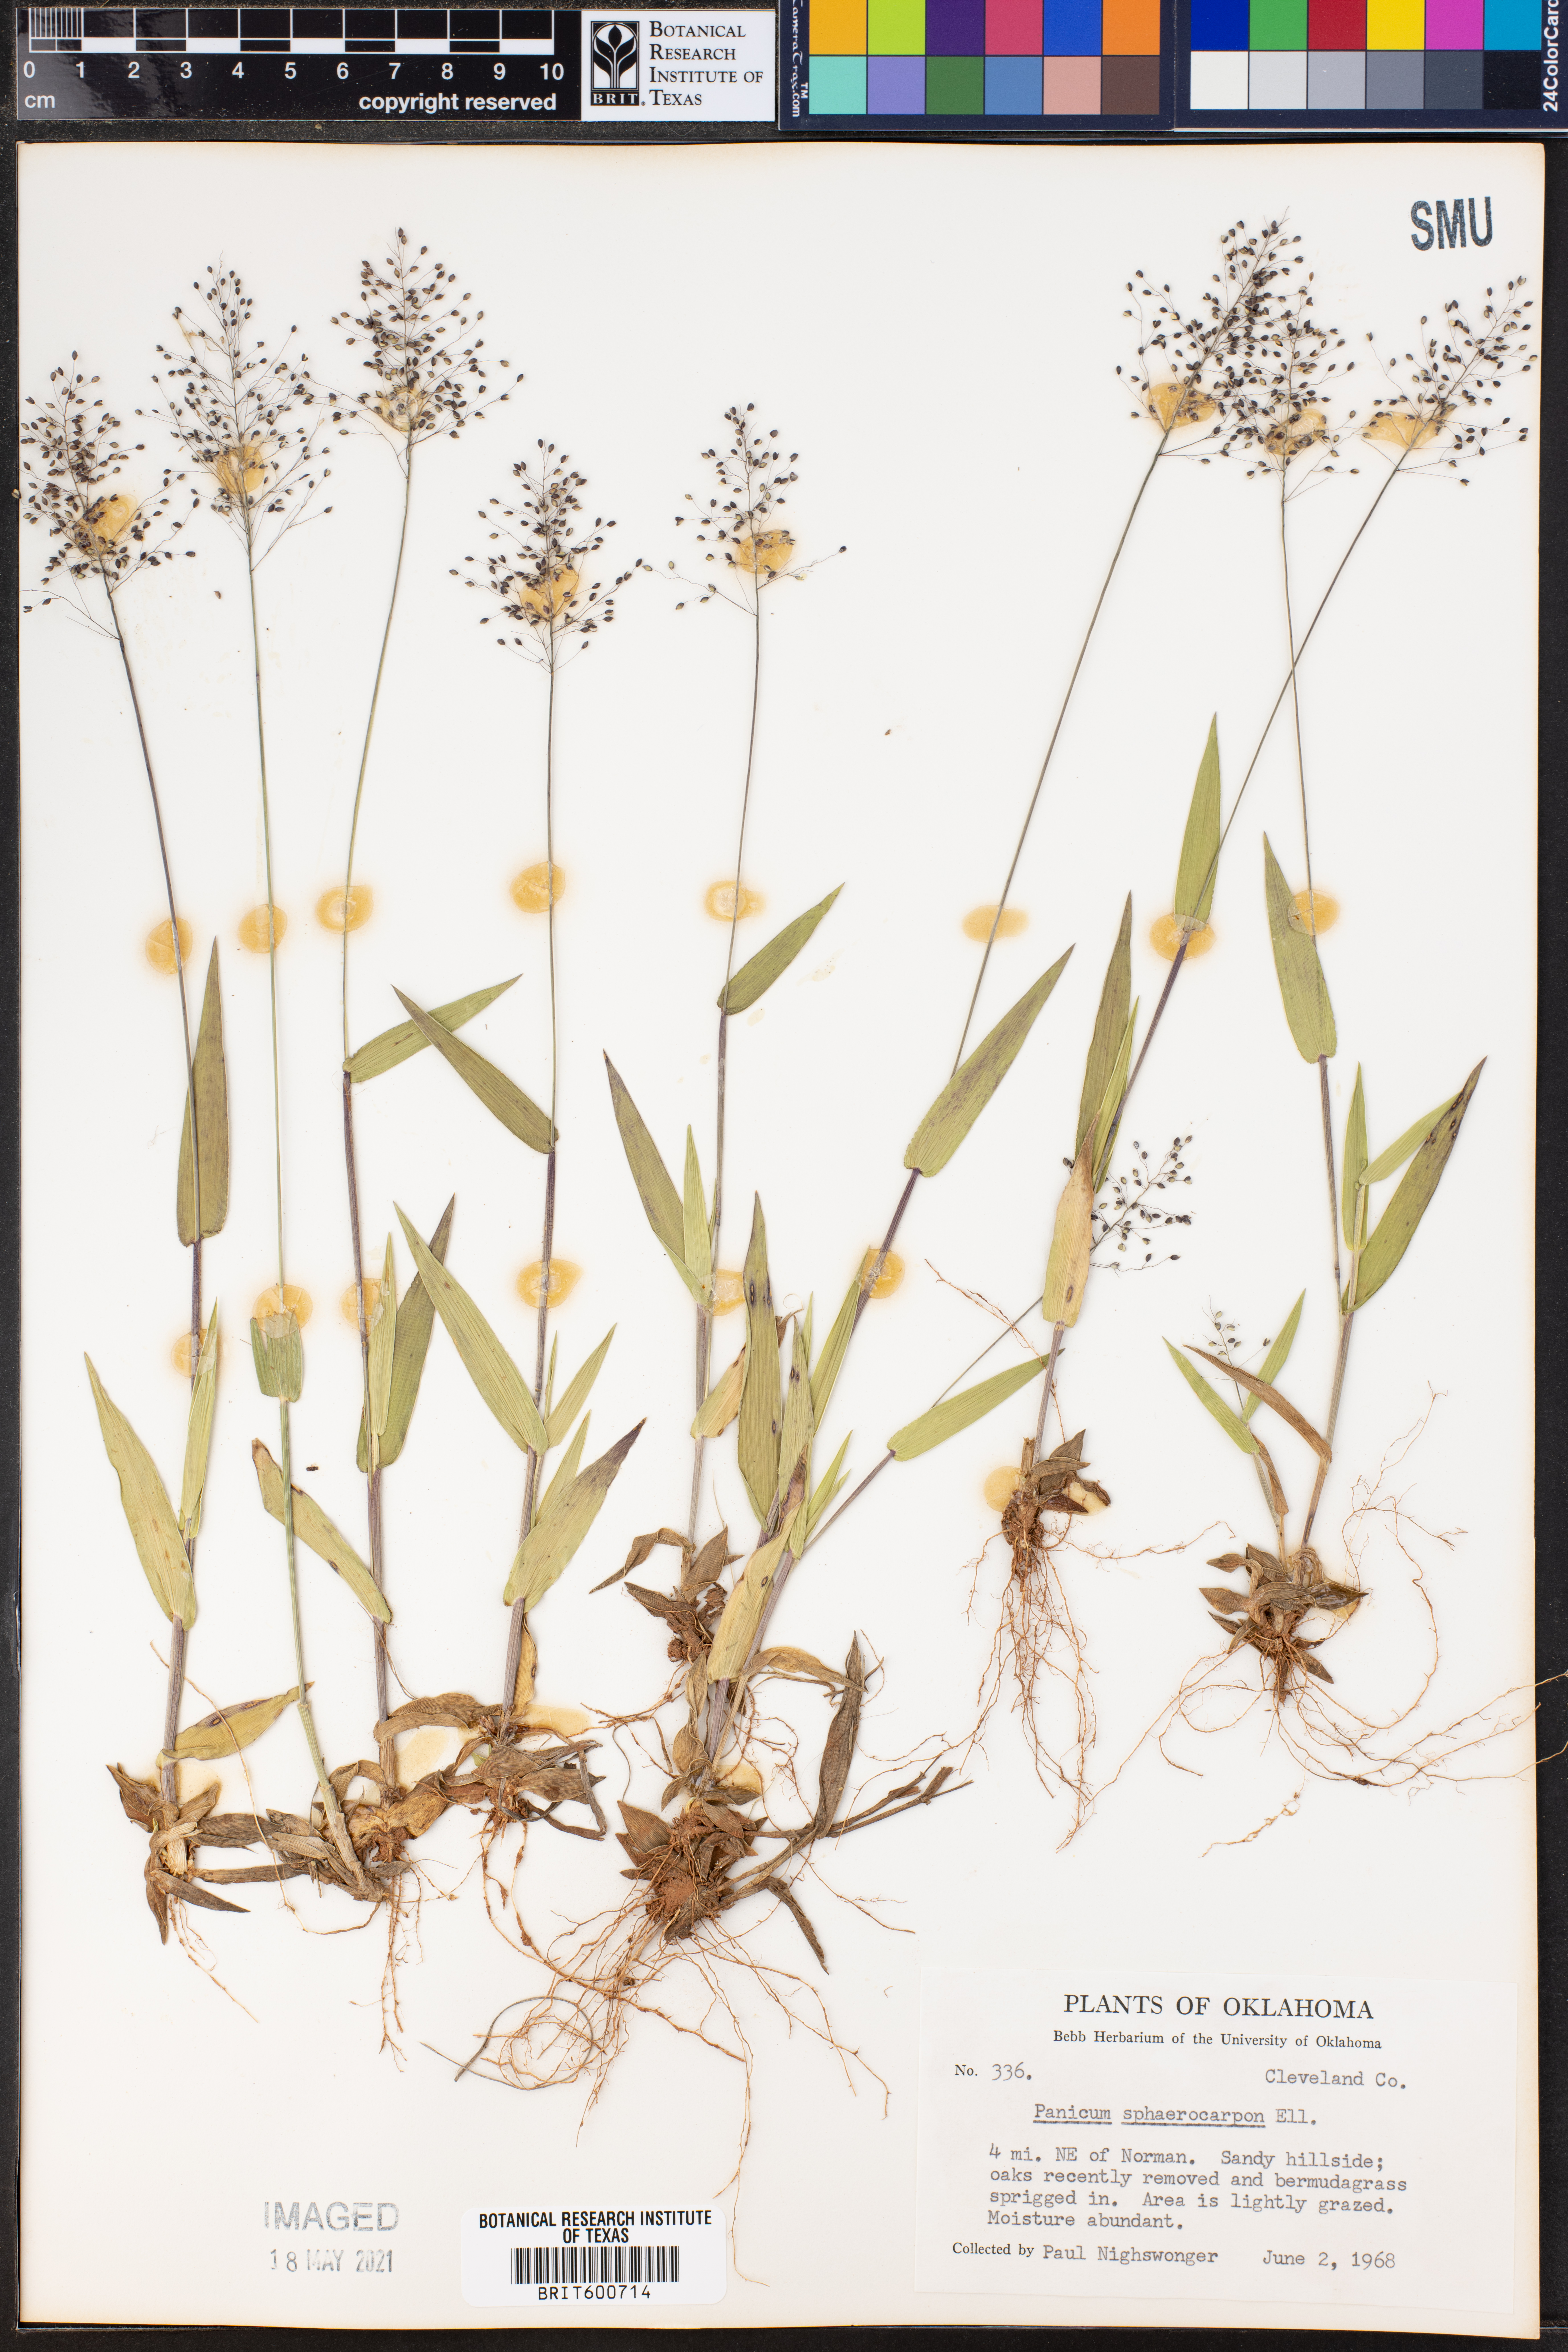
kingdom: Plantae
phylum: Tracheophyta
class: Liliopsida
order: Poales
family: Poaceae
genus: Dichanthelium
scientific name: Dichanthelium sphaerocarpon
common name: Round-fruited panicgrass
